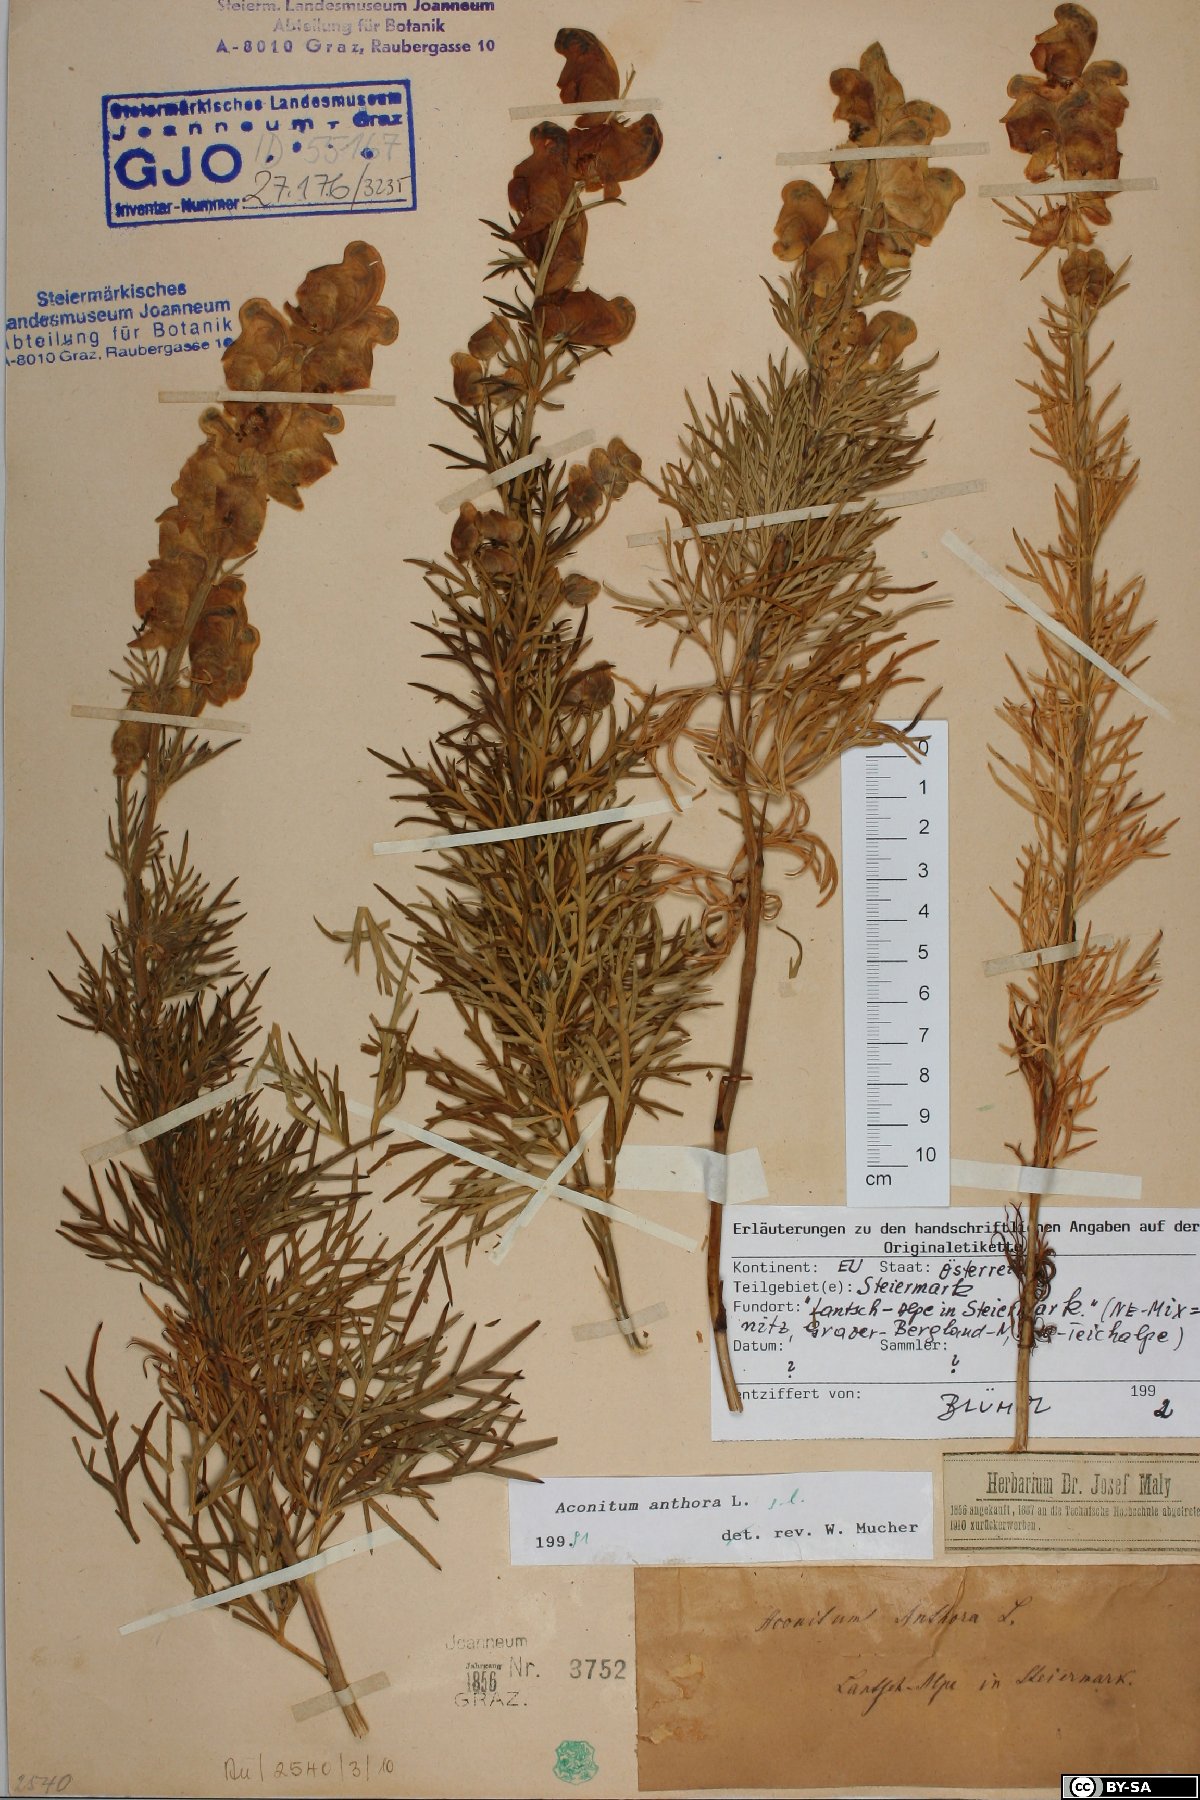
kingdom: Plantae
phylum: Tracheophyta
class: Magnoliopsida
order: Ranunculales
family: Ranunculaceae
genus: Aconitum
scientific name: Aconitum anthora
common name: Yellow monkshood
